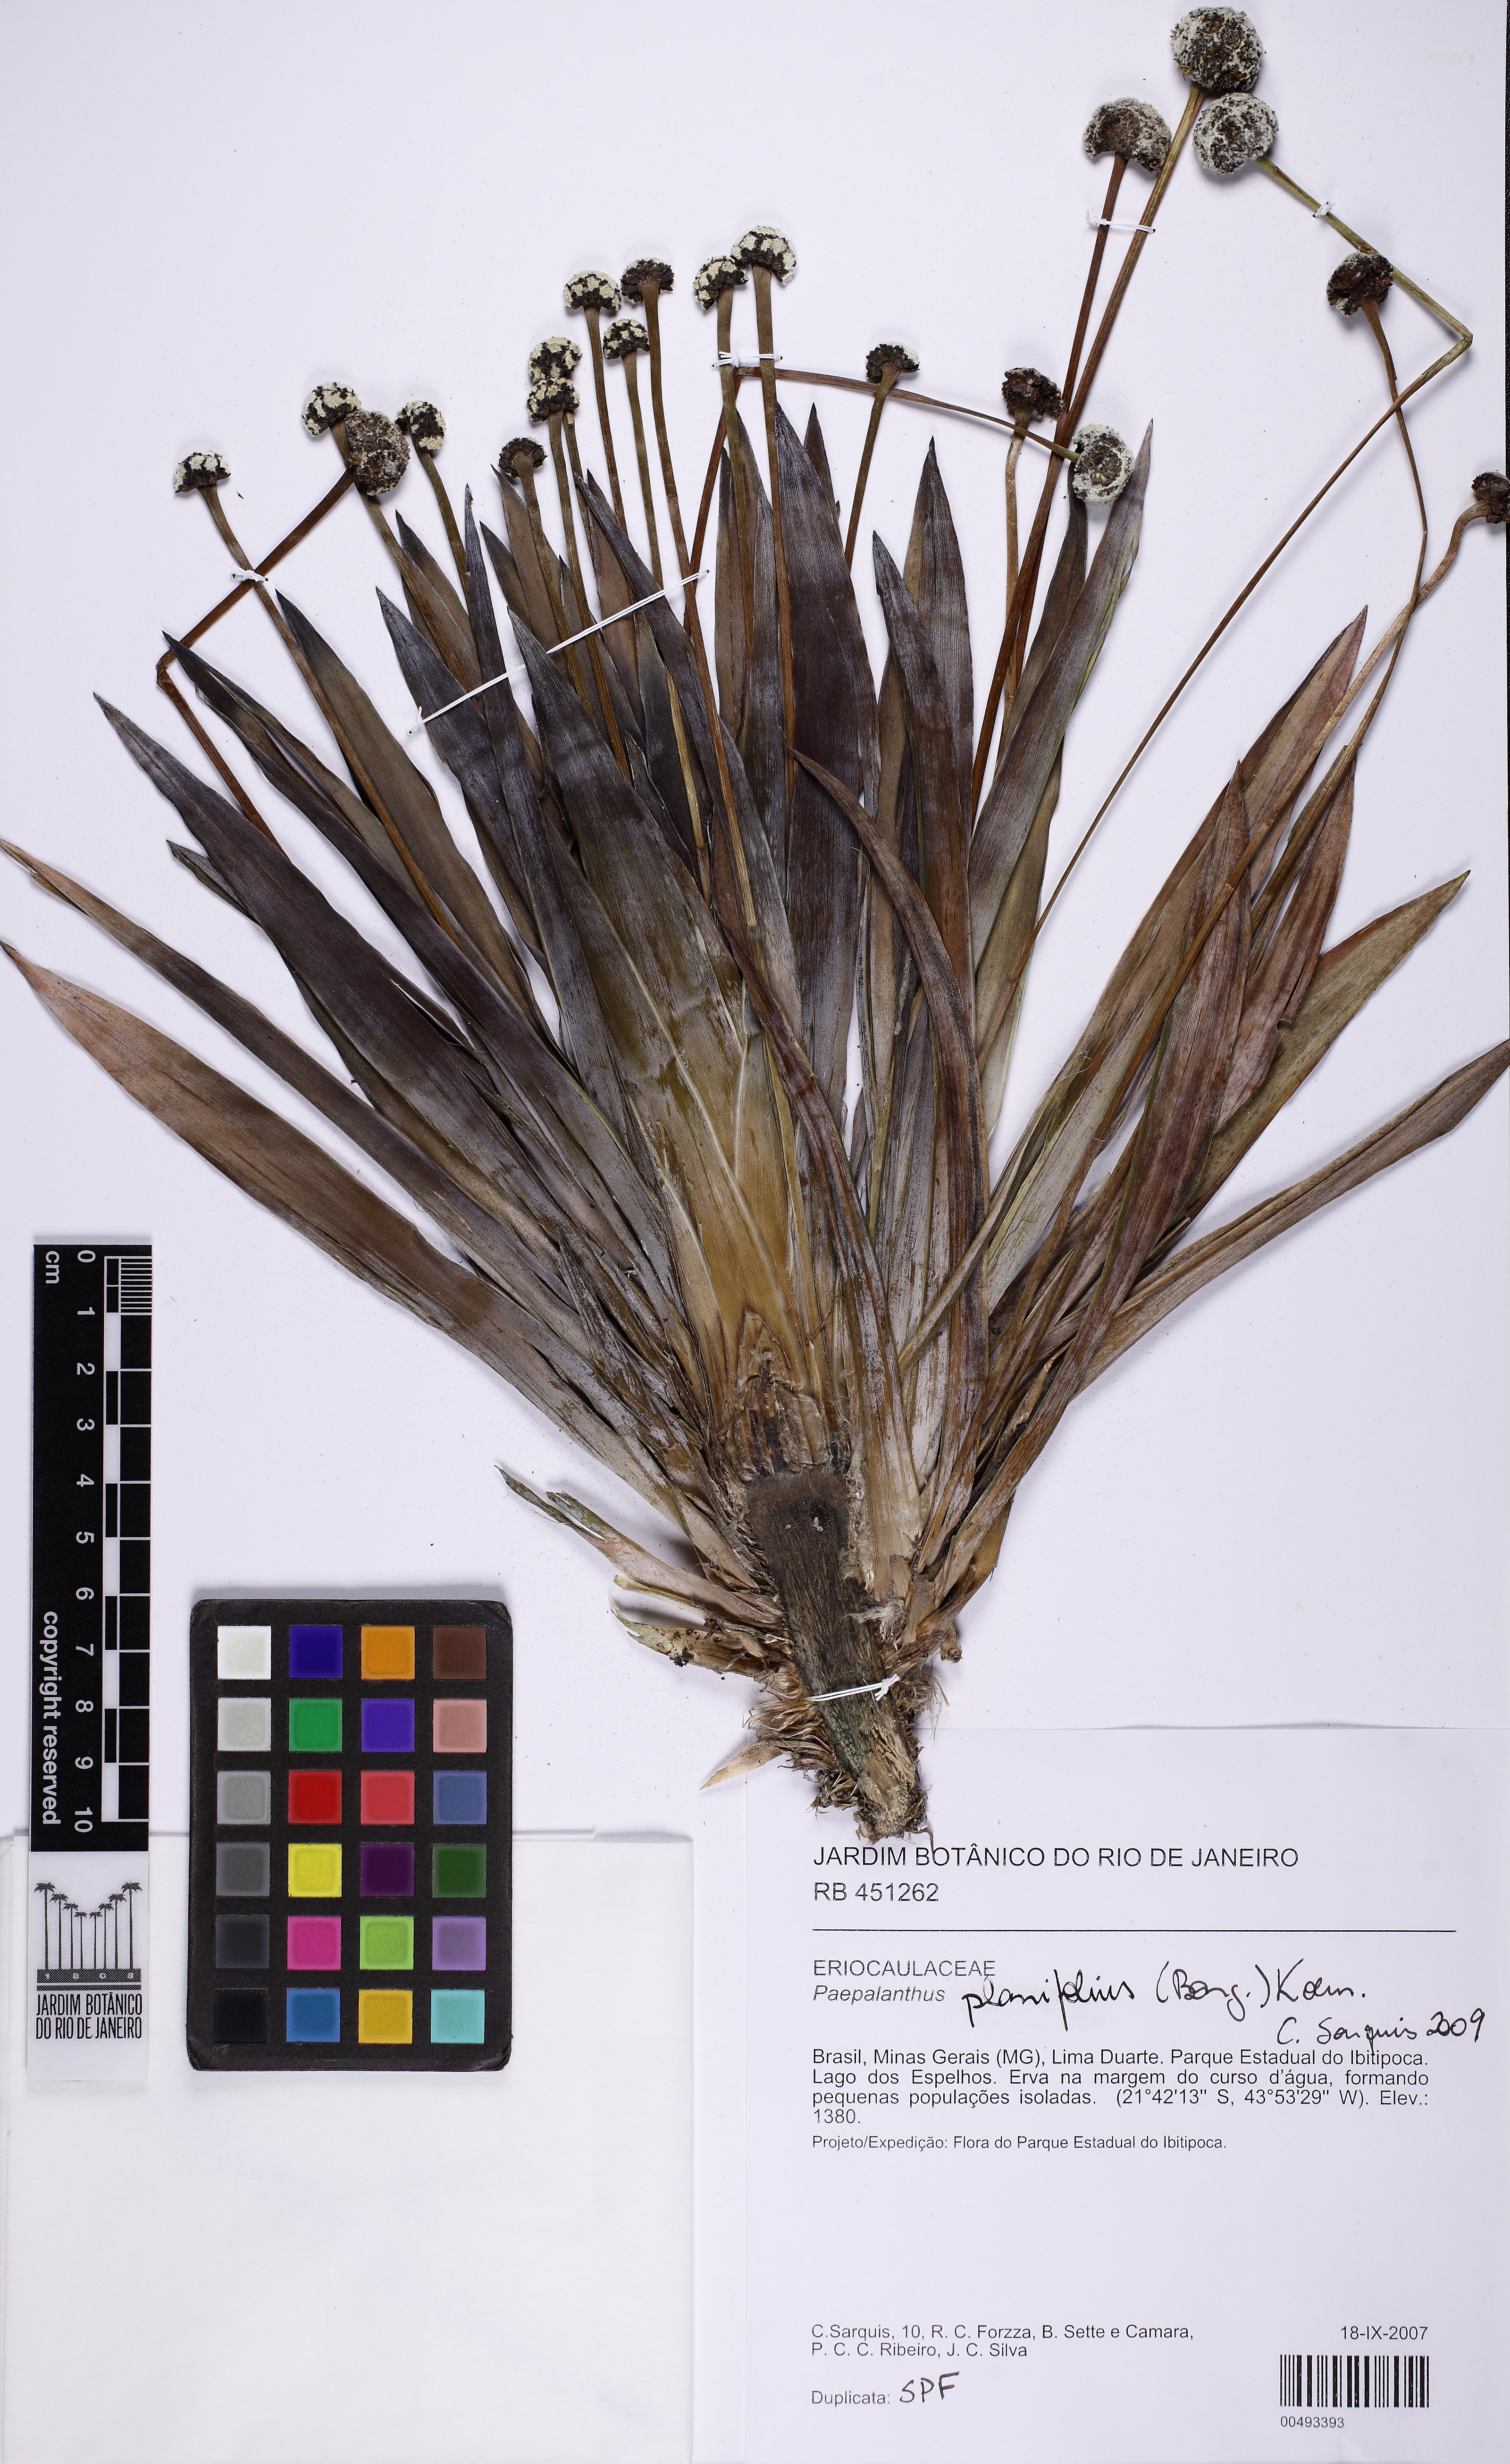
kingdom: Plantae
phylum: Tracheophyta
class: Liliopsida
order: Poales
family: Eriocaulaceae
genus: Paepalanthus
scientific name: Paepalanthus planifolius
